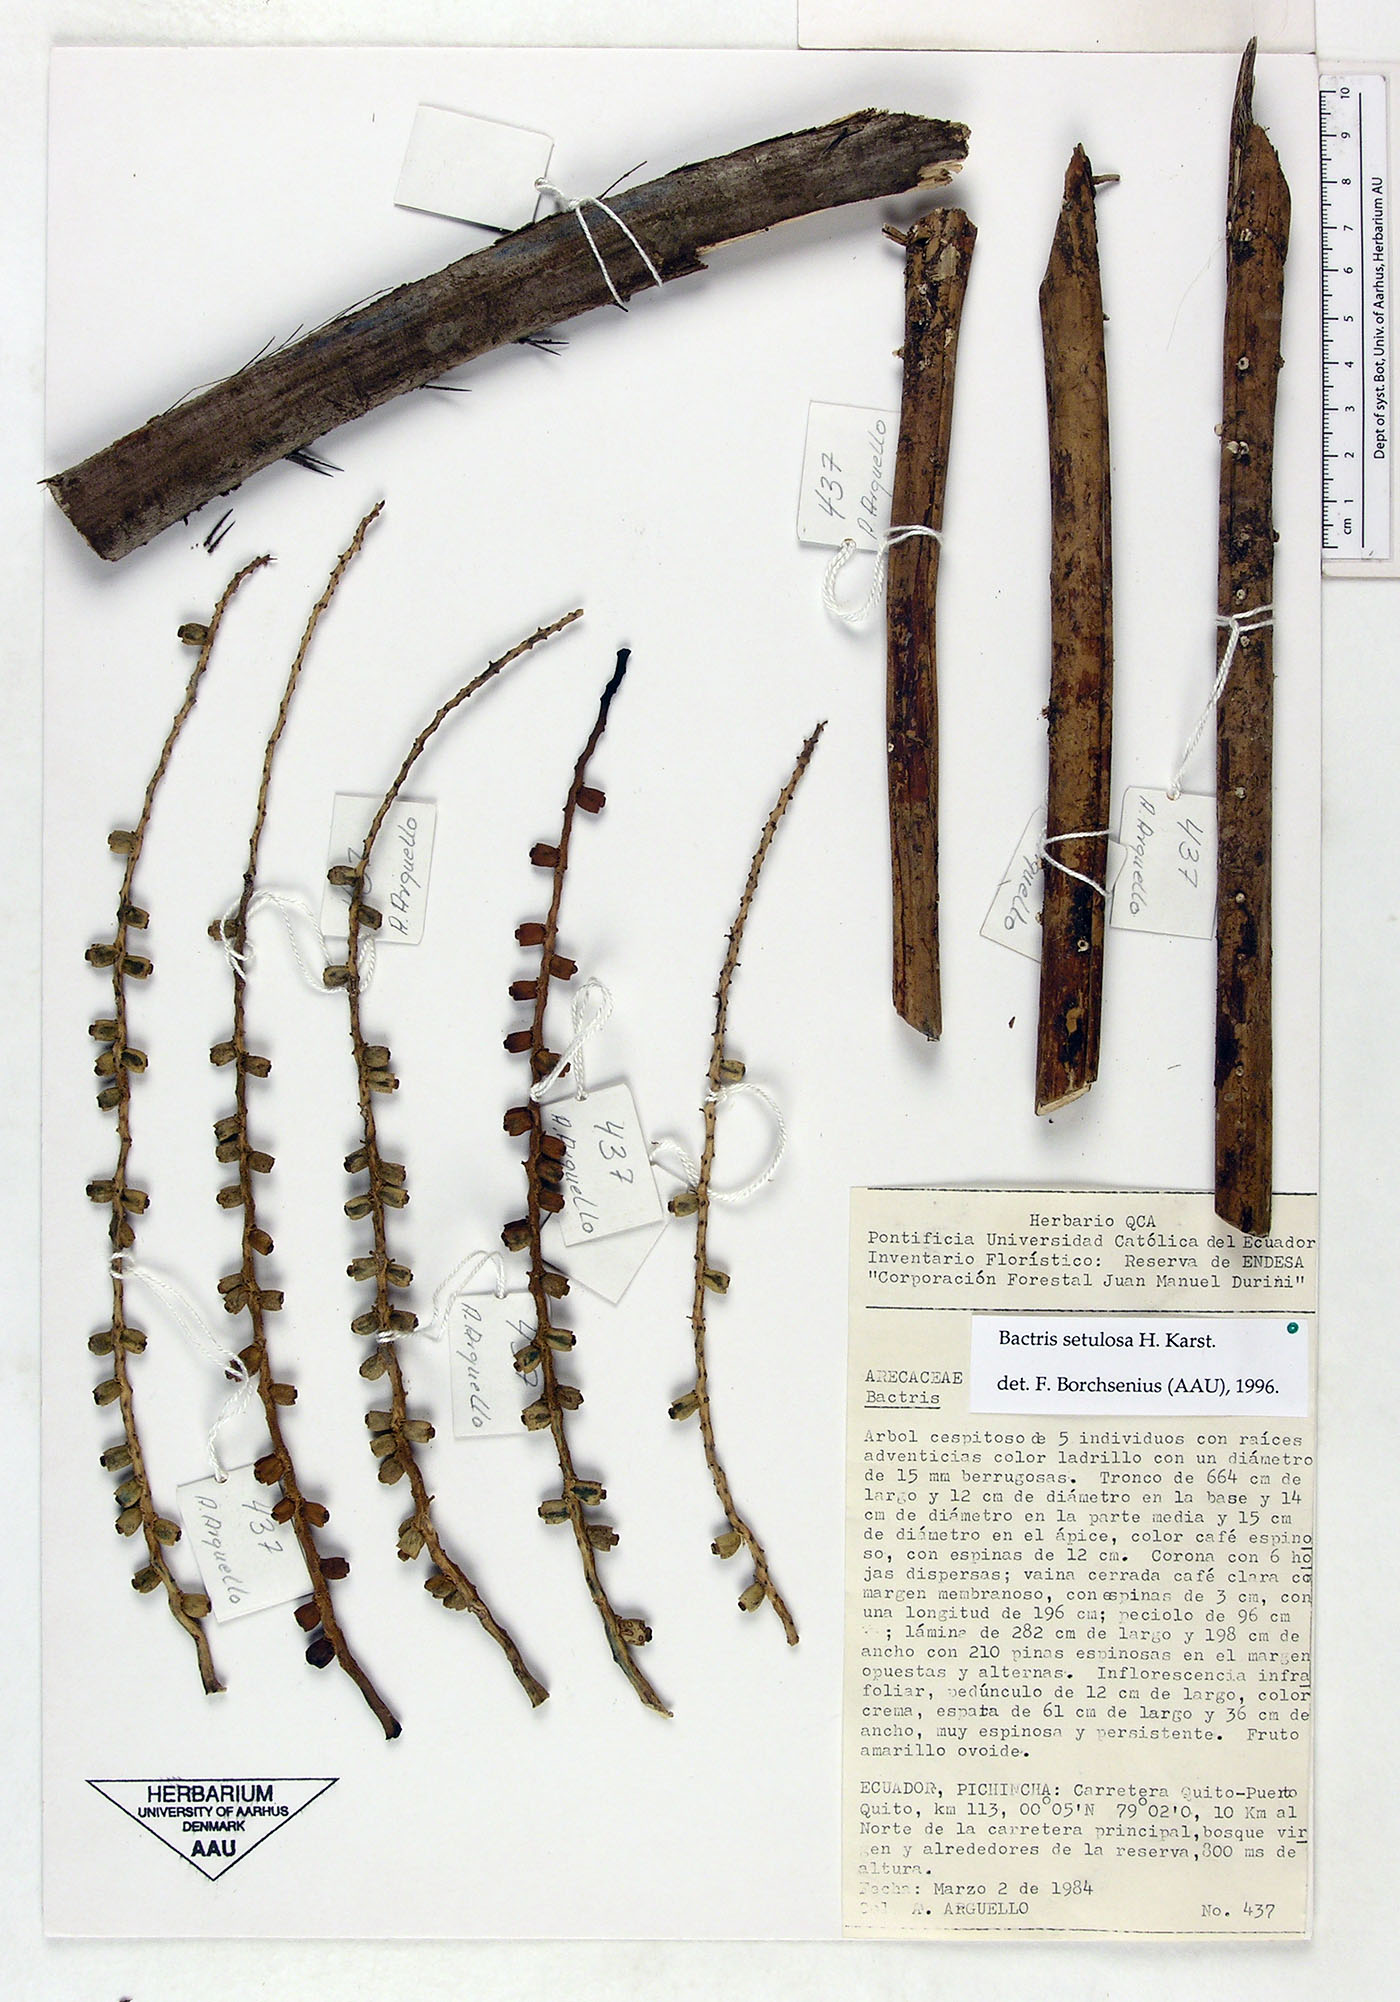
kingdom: Plantae
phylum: Tracheophyta
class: Liliopsida
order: Arecales
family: Arecaceae
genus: Bactris
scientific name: Bactris setulosa
